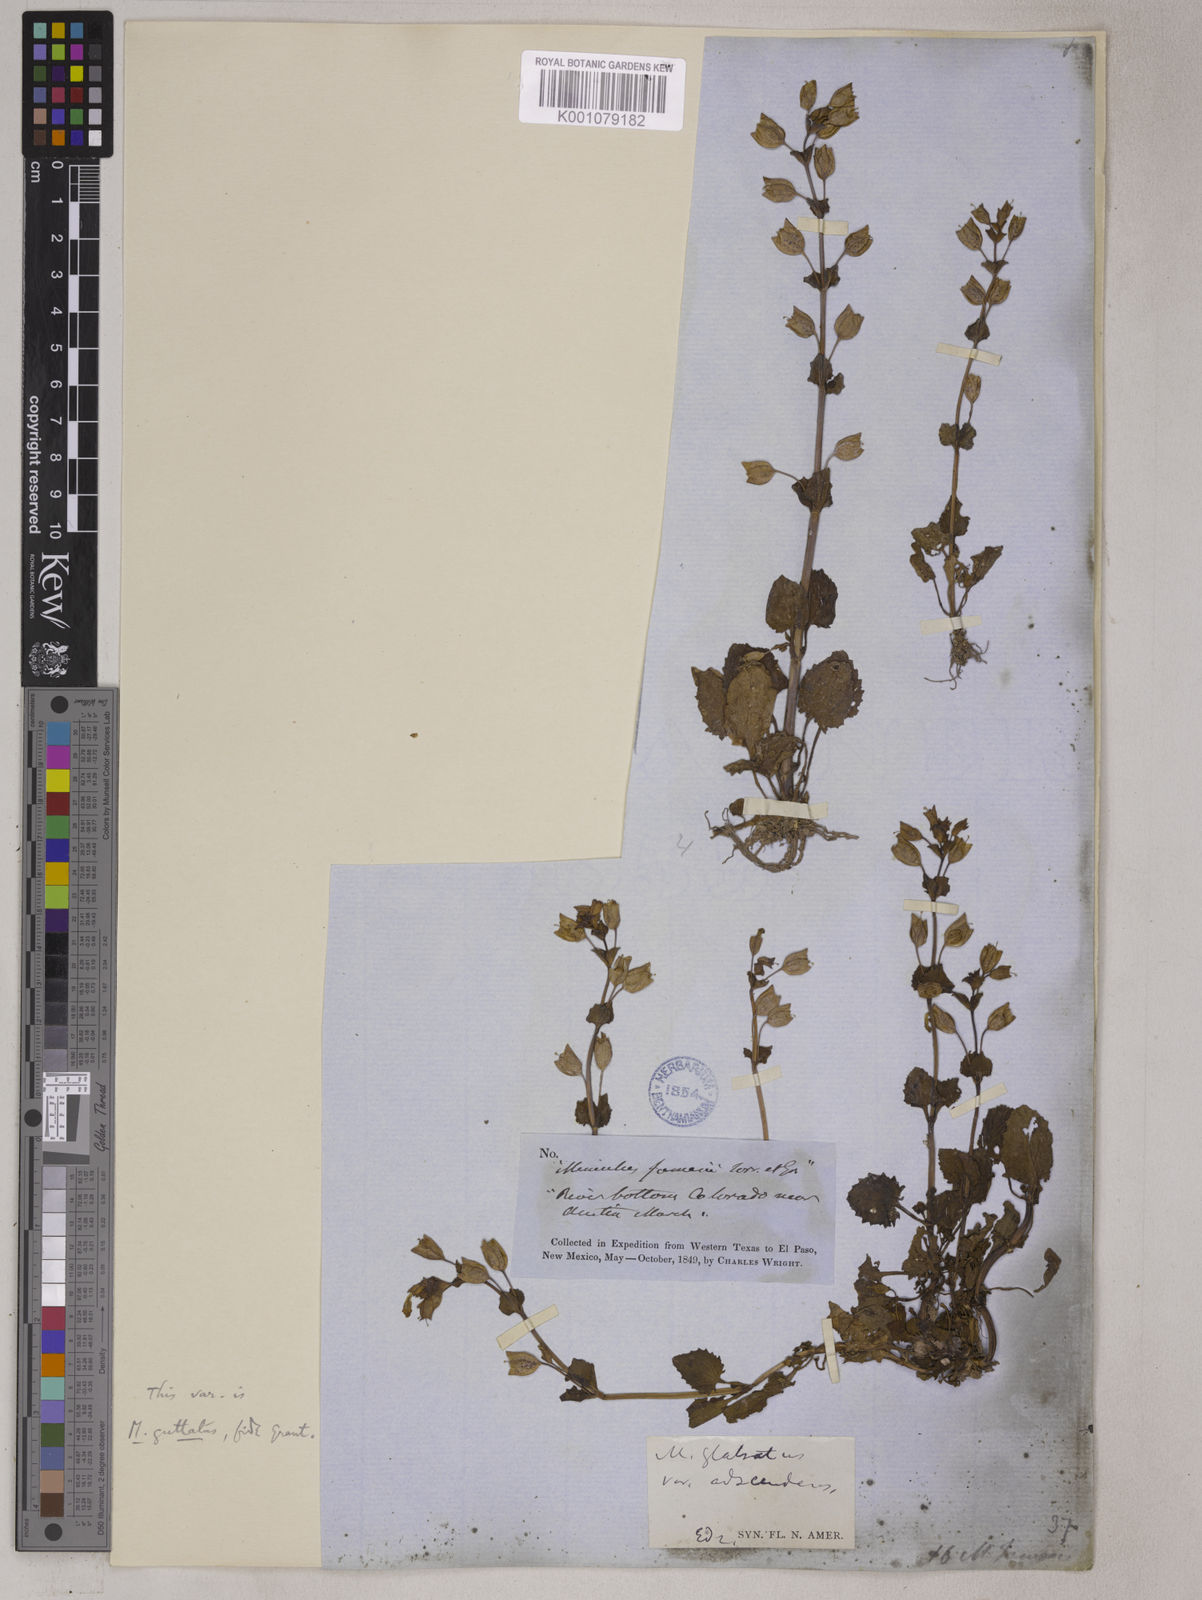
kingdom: Plantae
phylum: Tracheophyta
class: Magnoliopsida
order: Lamiales
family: Phrymaceae
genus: Erythranthe
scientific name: Erythranthe guttata
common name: Monkeyflower
